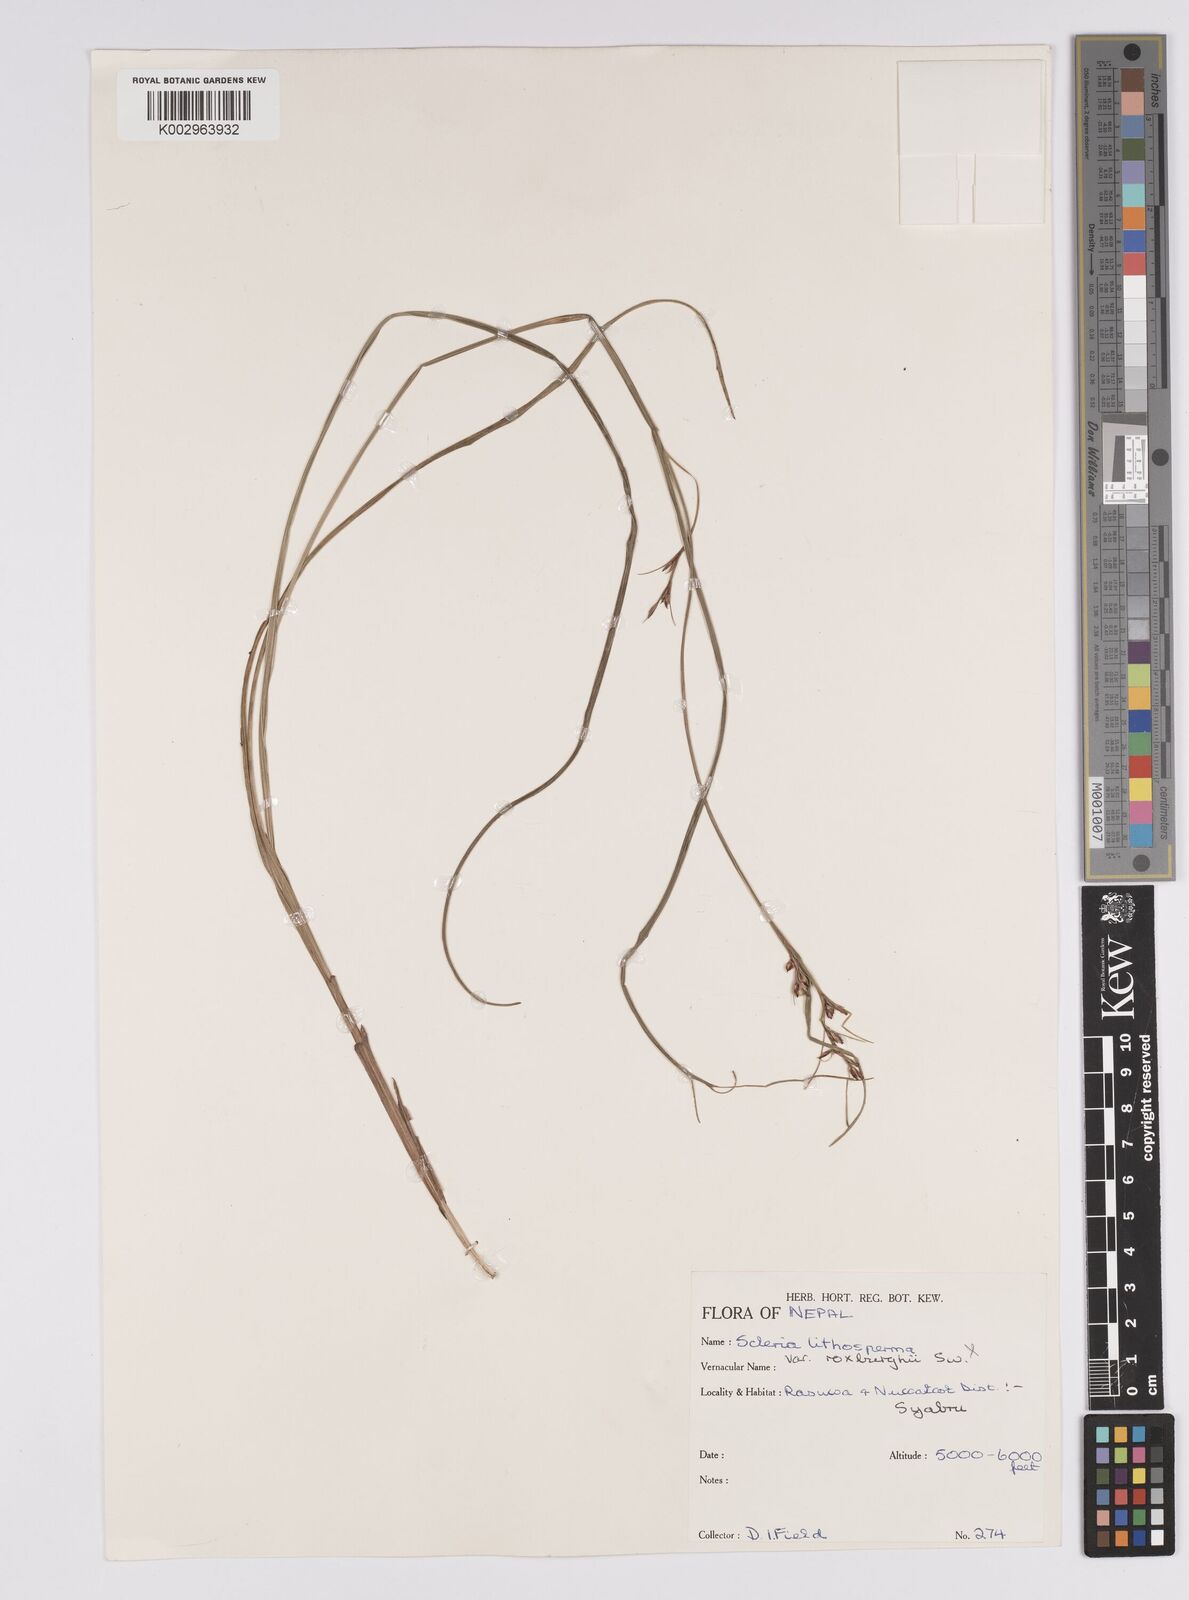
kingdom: Plantae
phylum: Tracheophyta
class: Liliopsida
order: Poales
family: Cyperaceae
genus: Scleria
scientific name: Scleria
